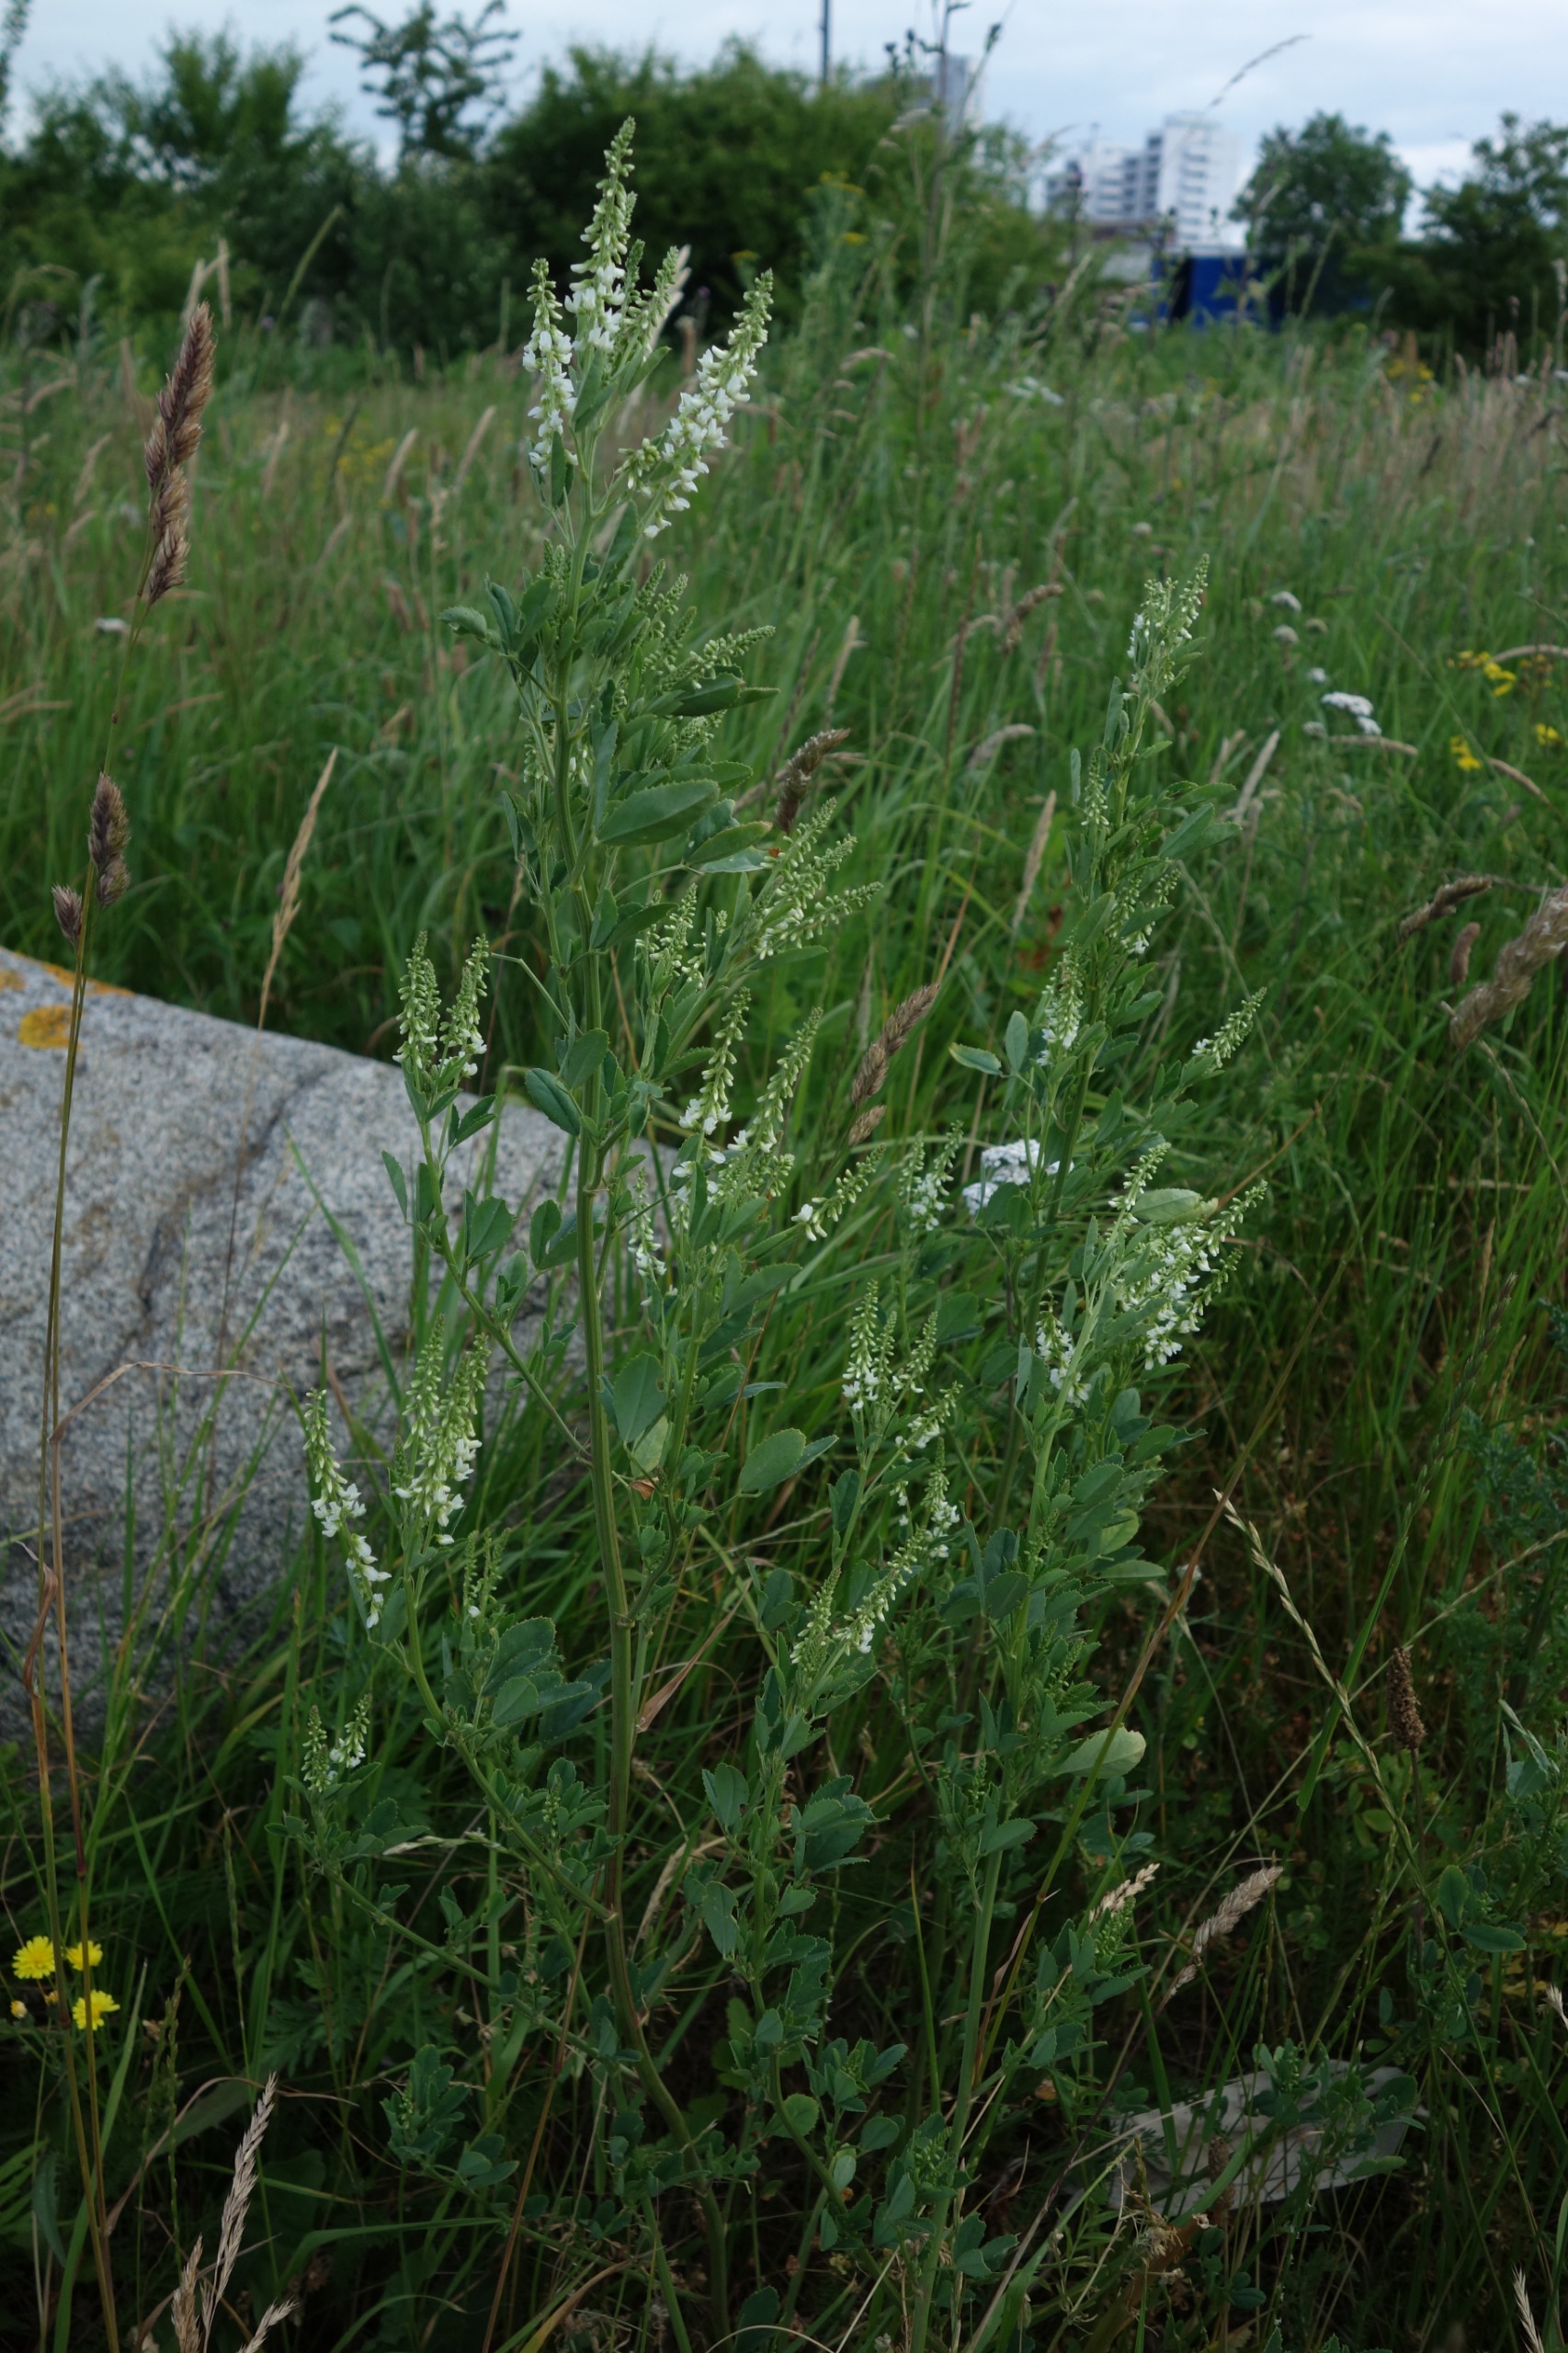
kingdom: Plantae
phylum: Tracheophyta
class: Magnoliopsida
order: Fabales
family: Fabaceae
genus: Melilotus
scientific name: Melilotus albus
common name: Hvid stenkløver
